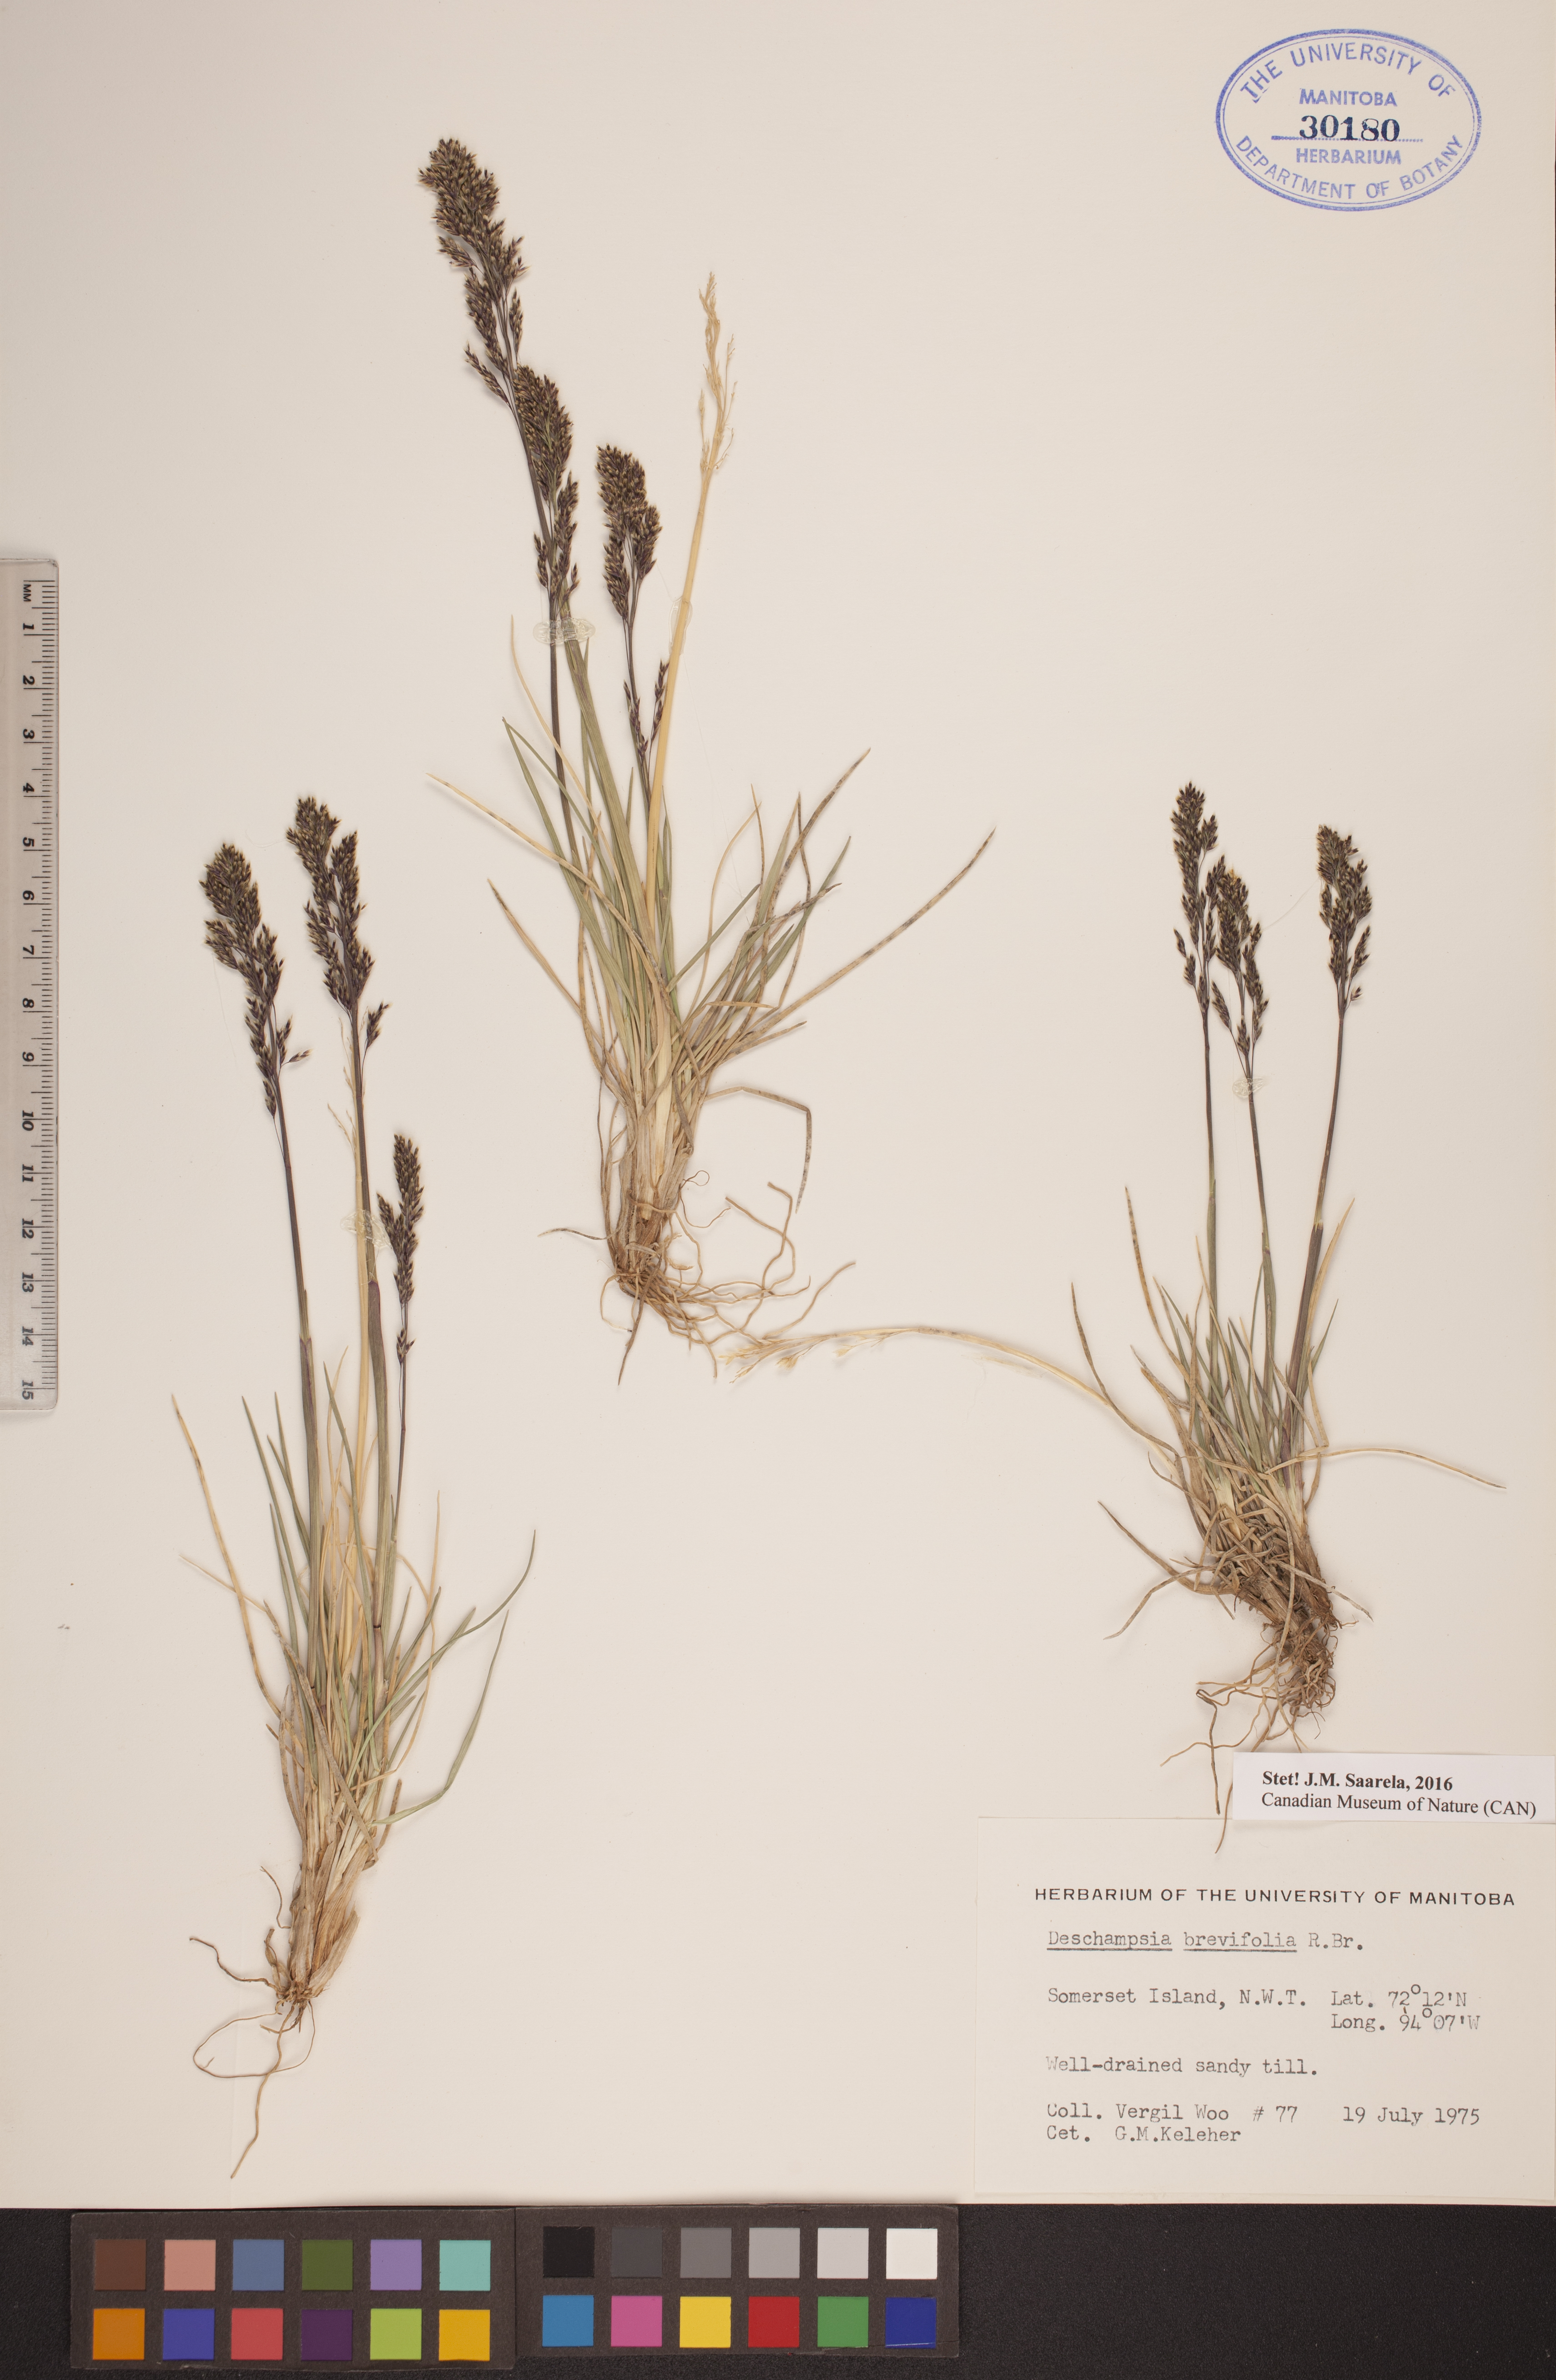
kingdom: Plantae
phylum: Tracheophyta
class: Liliopsida
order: Poales
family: Poaceae
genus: Deschampsia
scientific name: Deschampsia cespitosa
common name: Tufted hair-grass
